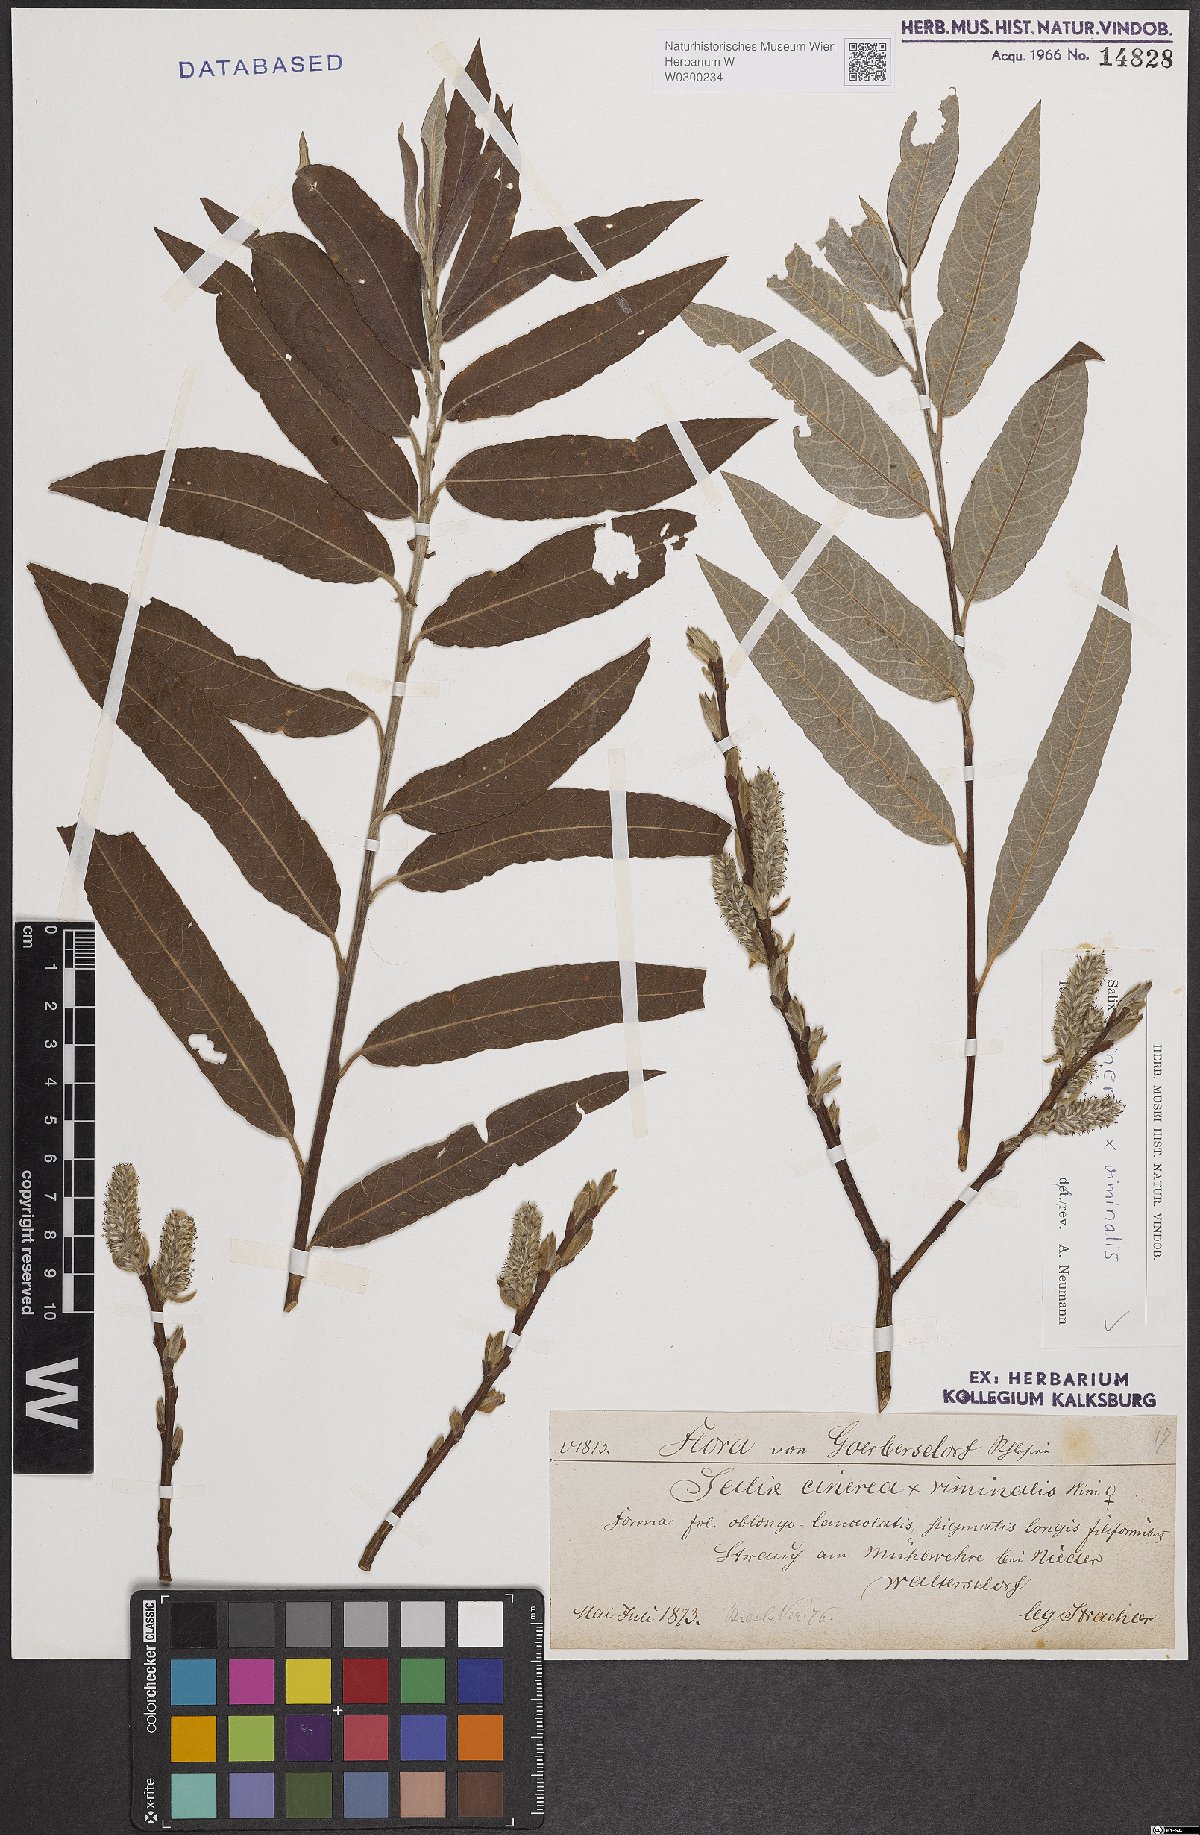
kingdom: Plantae
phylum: Tracheophyta
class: Magnoliopsida
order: Malpighiales
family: Salicaceae
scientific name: Salicaceae
